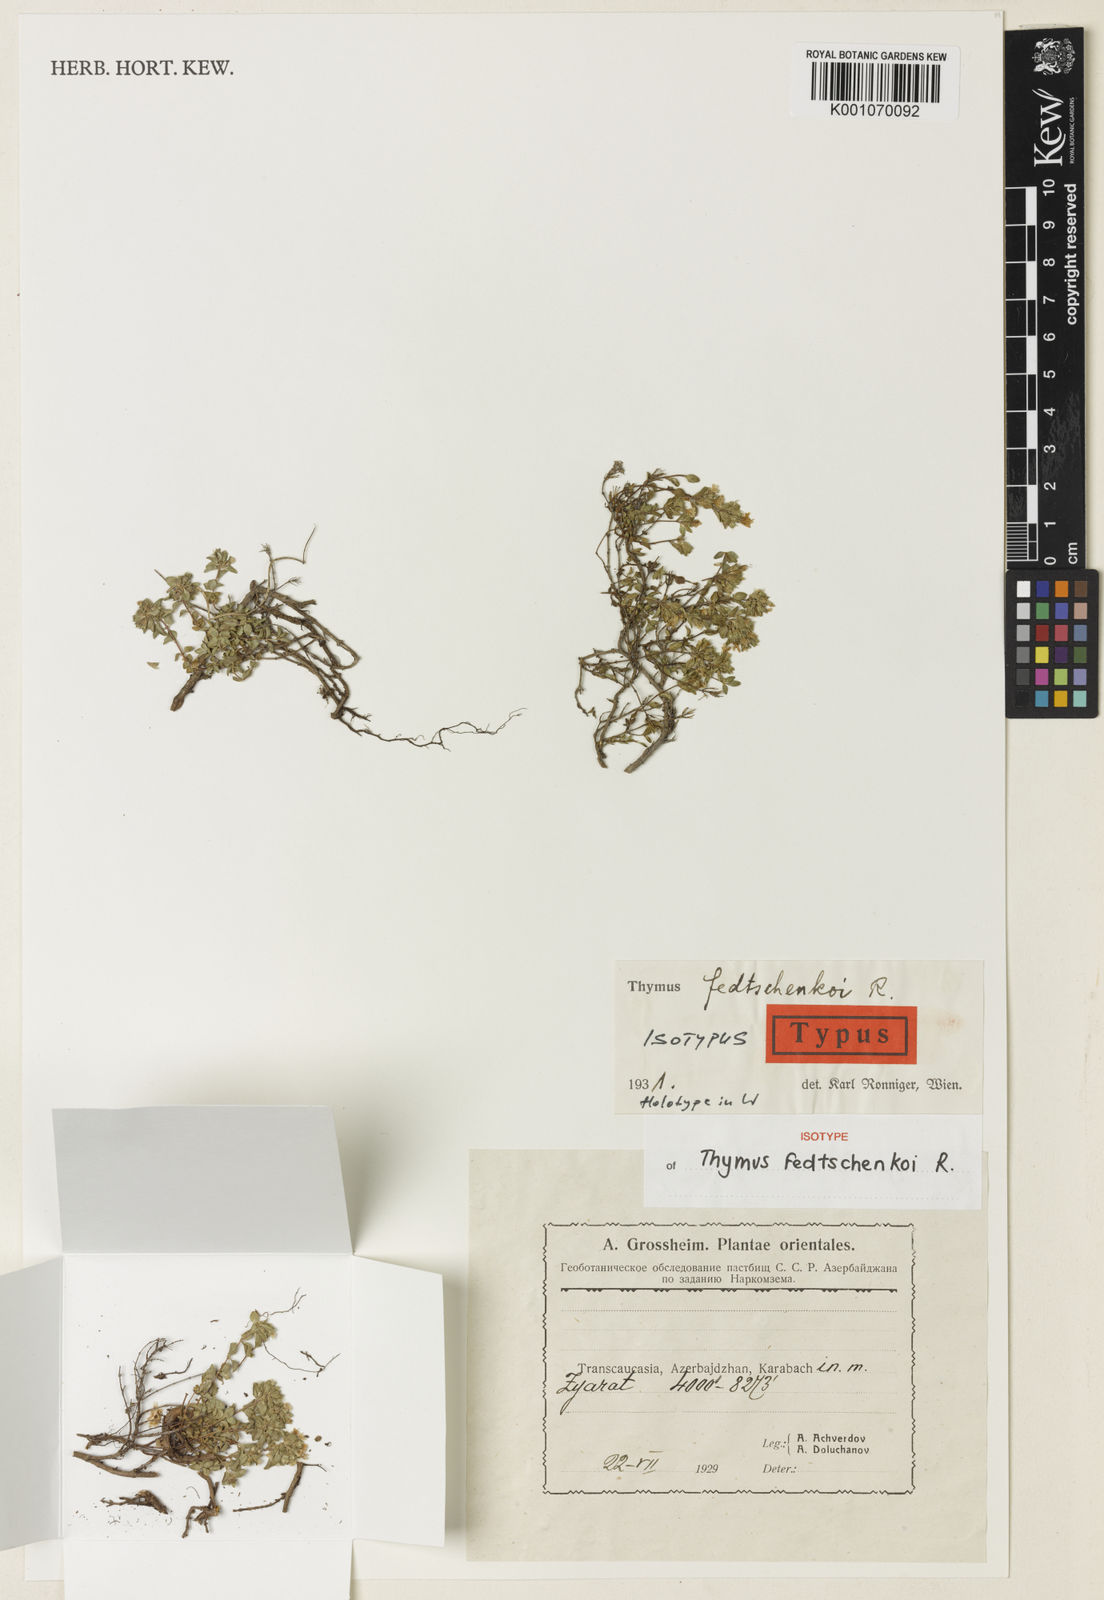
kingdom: Plantae
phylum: Tracheophyta
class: Magnoliopsida
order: Lamiales
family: Lamiaceae
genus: Thymus
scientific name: Thymus fedtschenkoi
